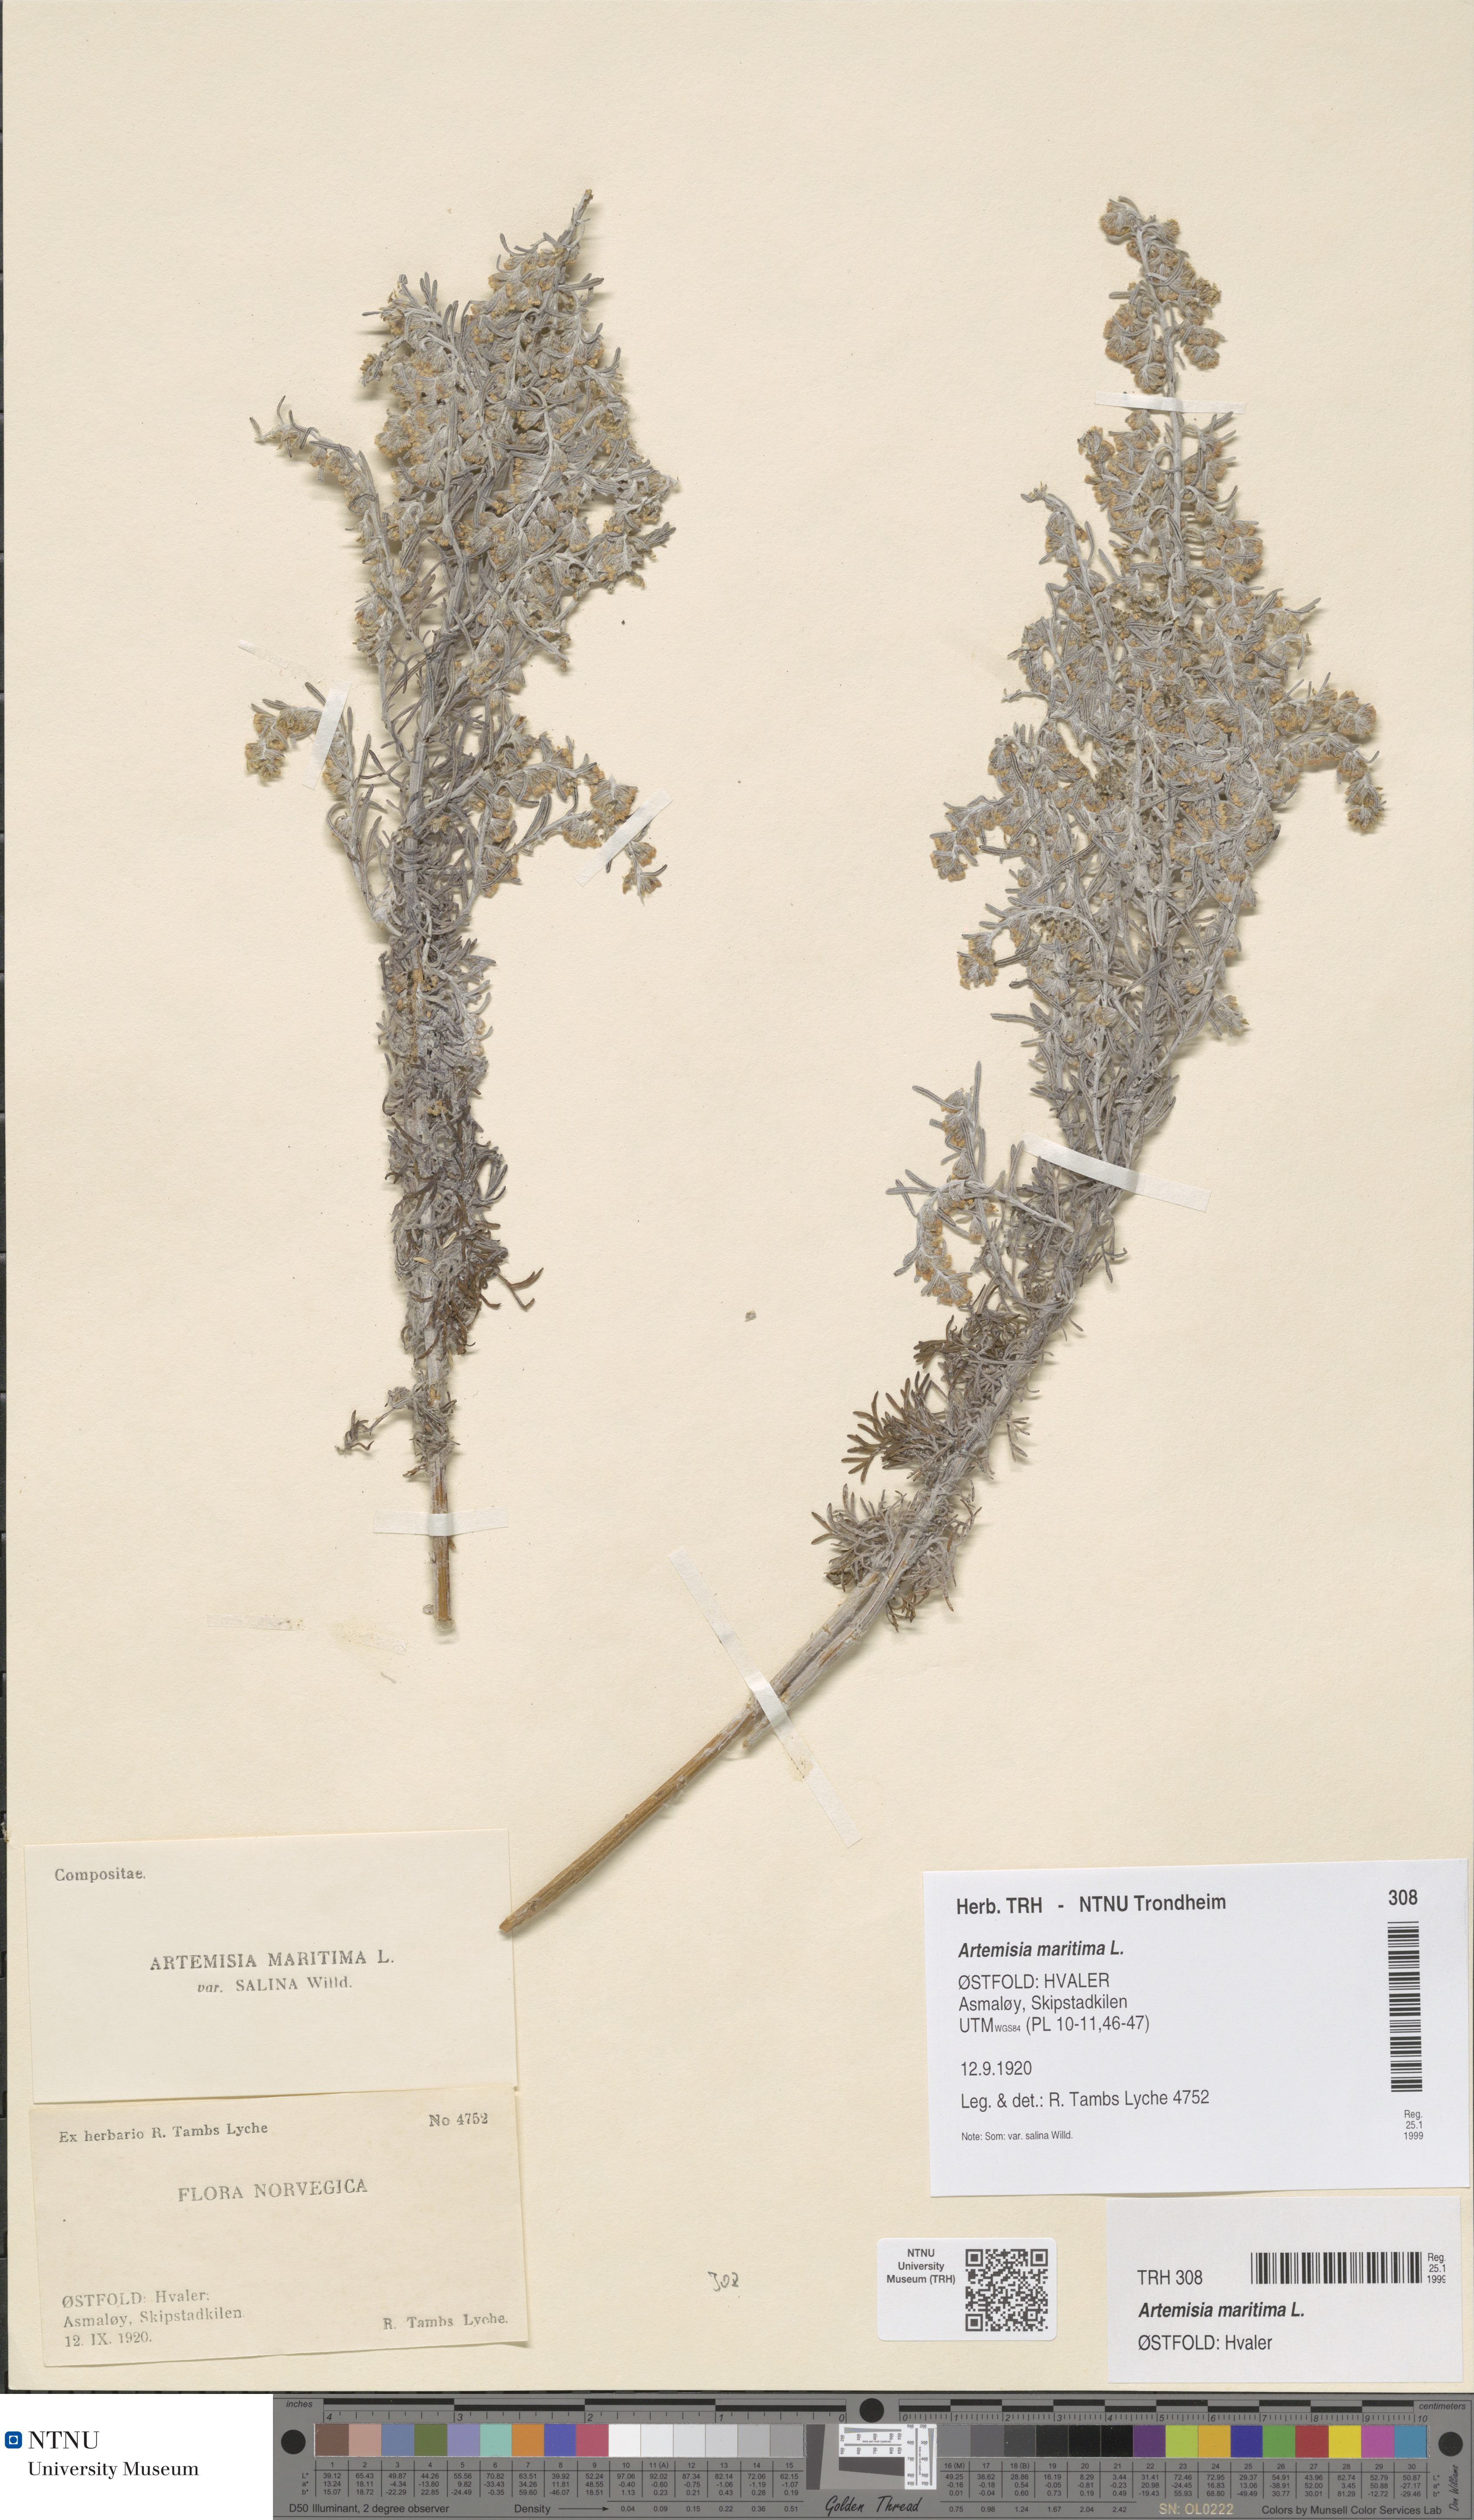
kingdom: Plantae
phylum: Tracheophyta
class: Magnoliopsida
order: Asterales
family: Asteraceae
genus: Artemisia
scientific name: Artemisia maritima
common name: Wormseed
